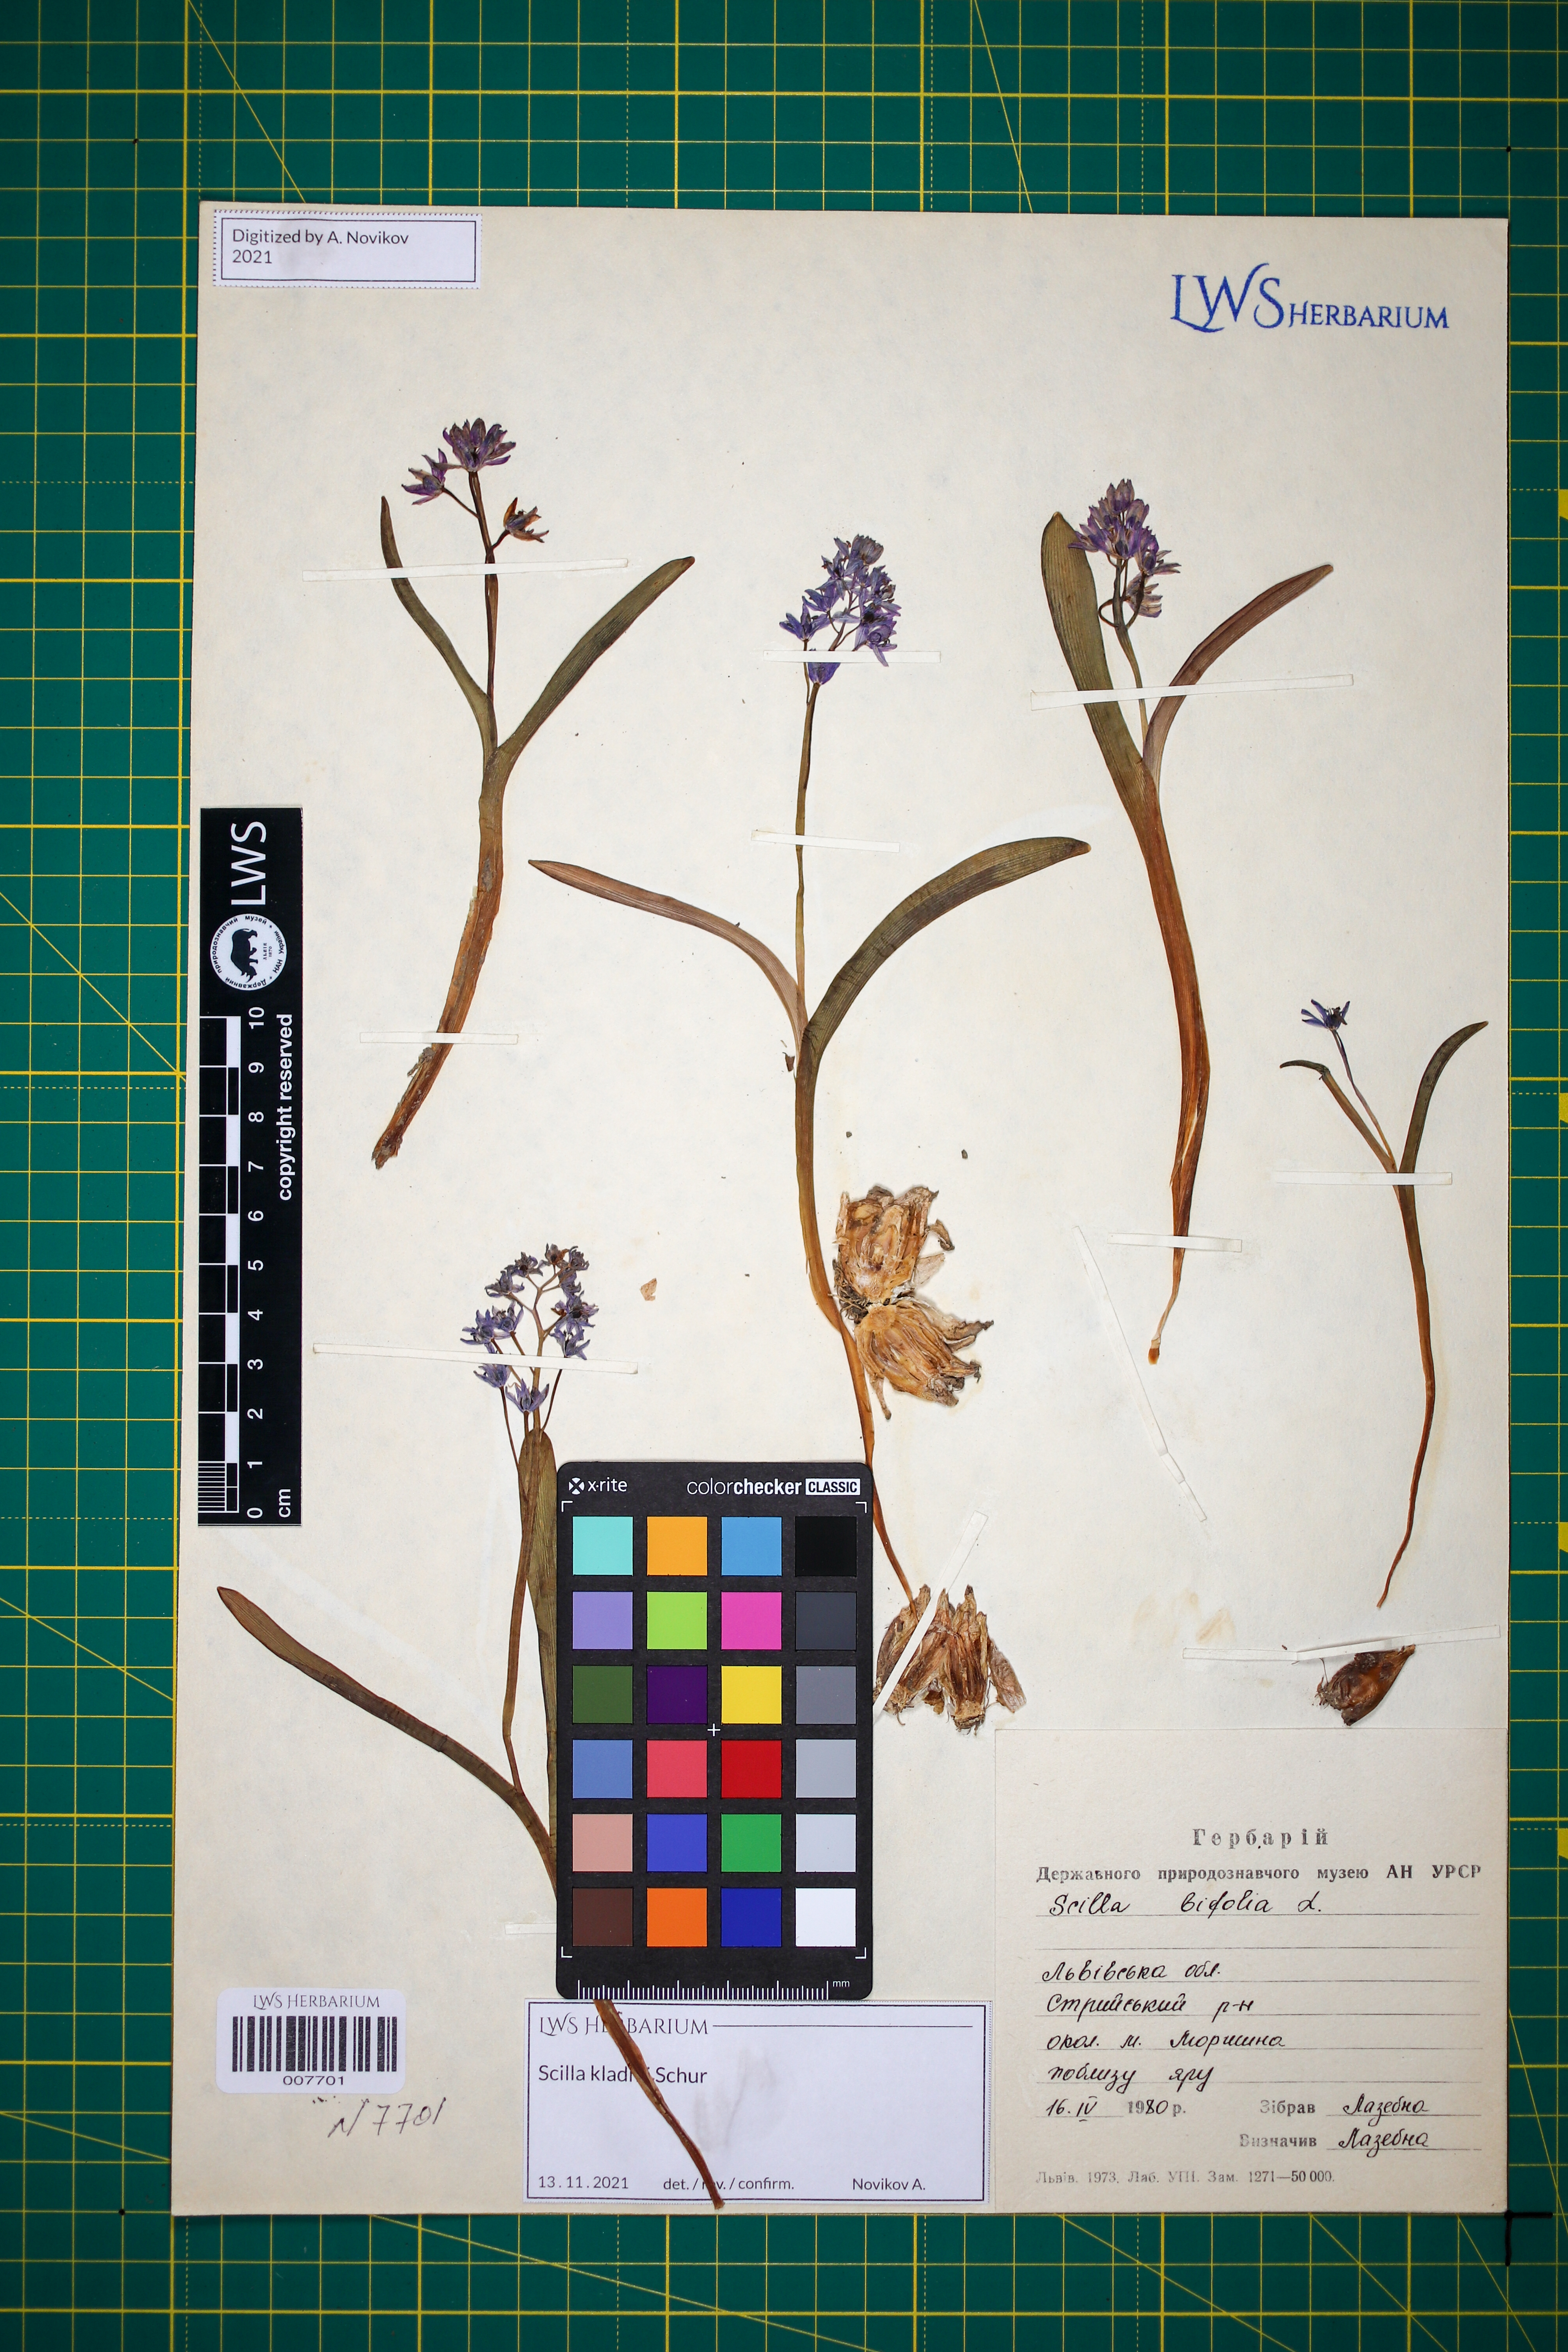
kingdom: Plantae
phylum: Tracheophyta
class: Liliopsida
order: Asparagales
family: Asparagaceae
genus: Scilla
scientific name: Scilla kladnii
